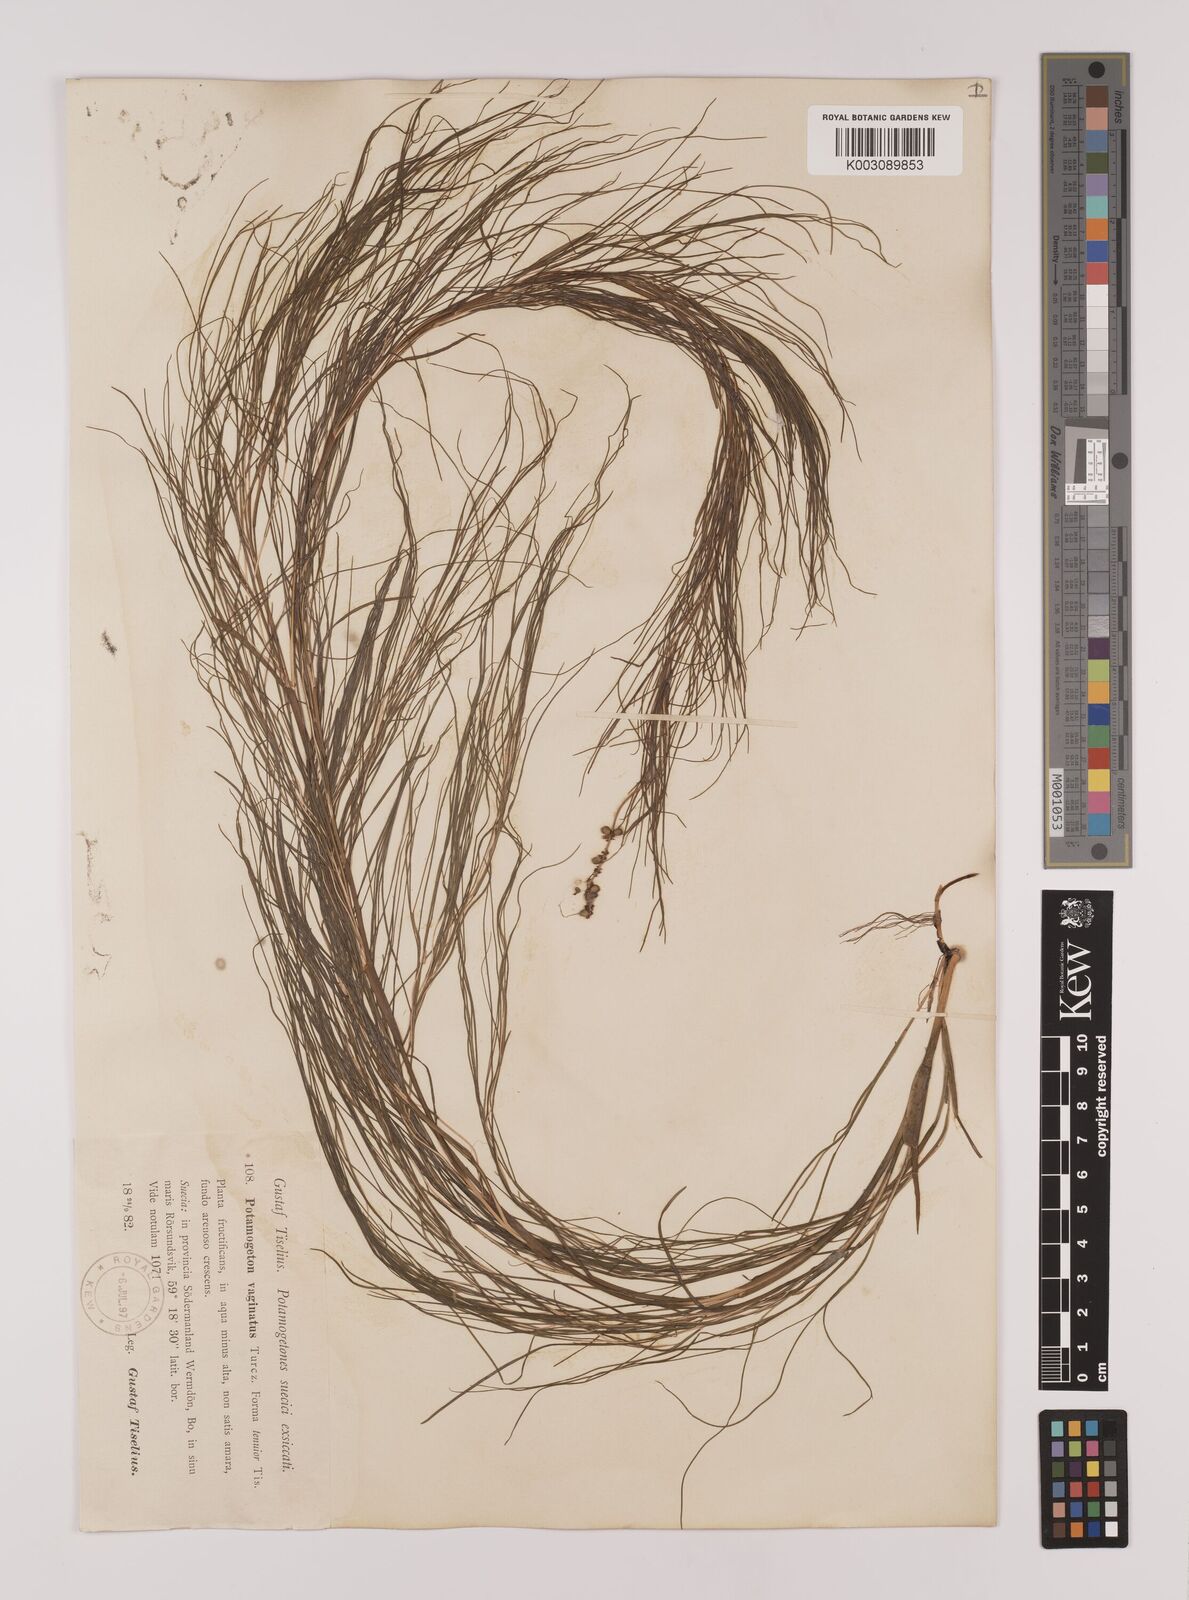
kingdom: Plantae
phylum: Tracheophyta
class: Liliopsida
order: Alismatales
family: Potamogetonaceae
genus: Stuckenia
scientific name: Stuckenia pectinata
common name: Sago pondweed
